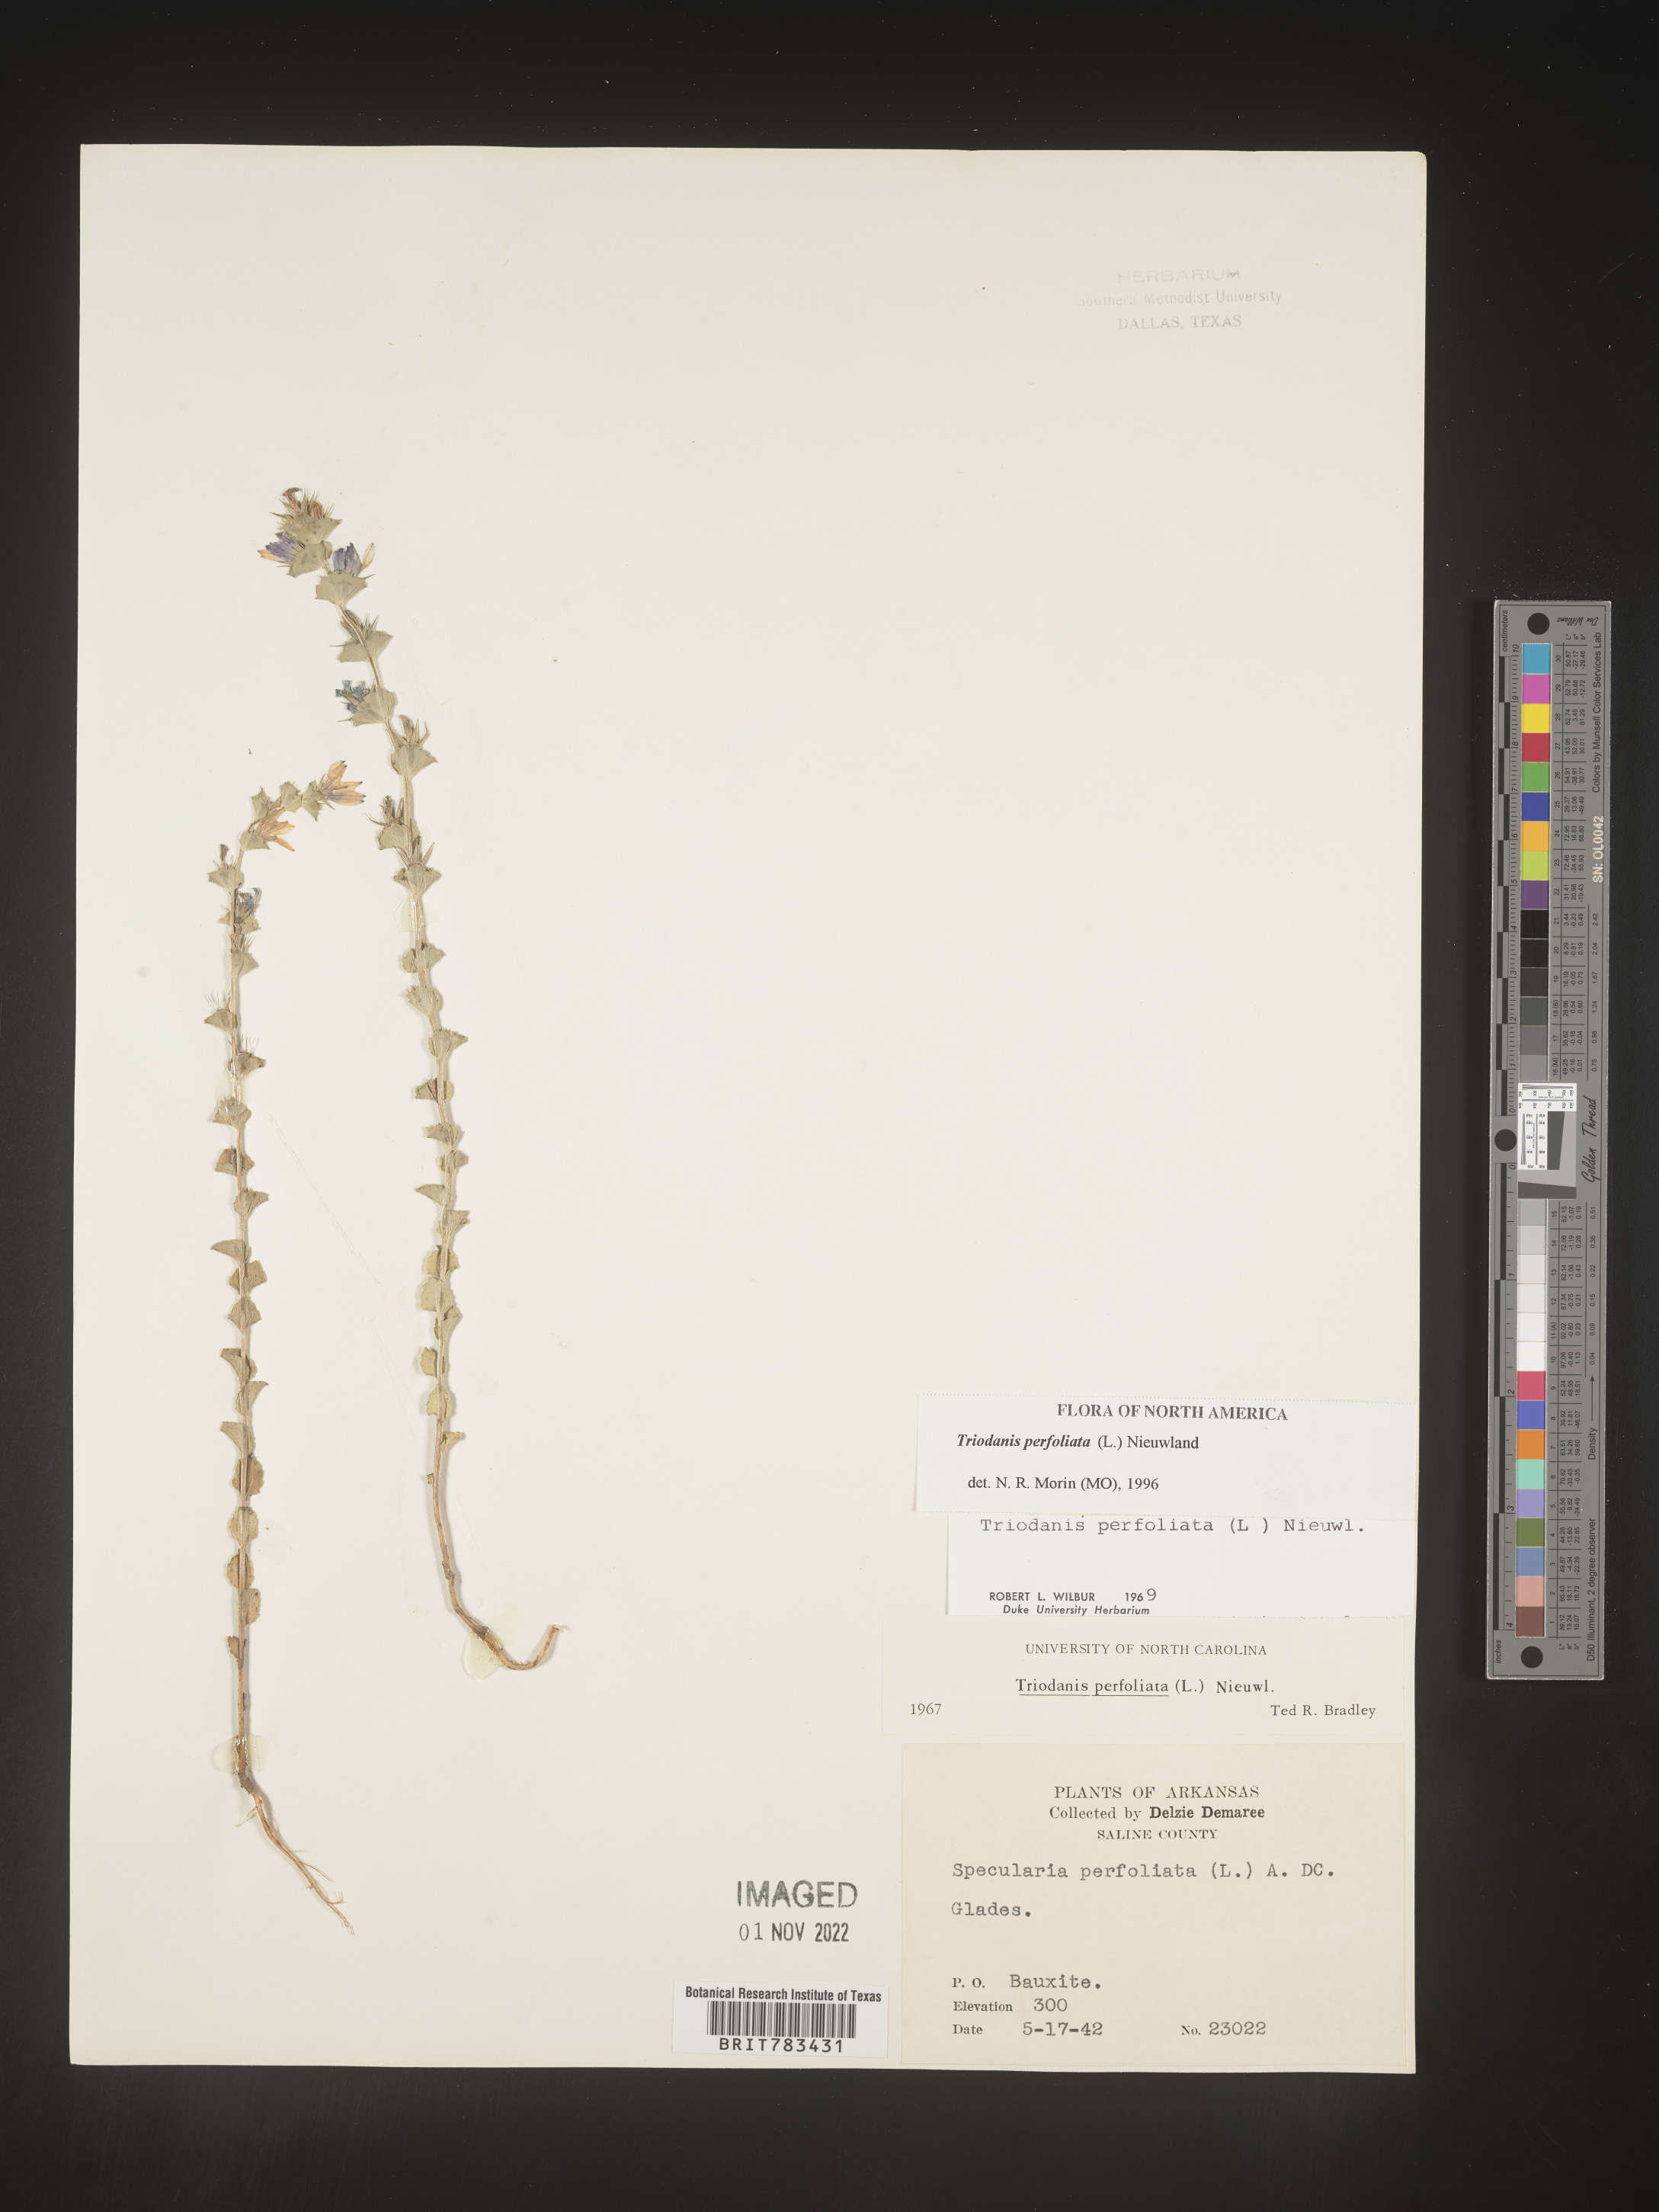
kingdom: Plantae
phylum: Tracheophyta
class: Magnoliopsida
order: Asterales
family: Campanulaceae
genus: Triodanis
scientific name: Triodanis perfoliata
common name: Clasping venus' looking-glass
